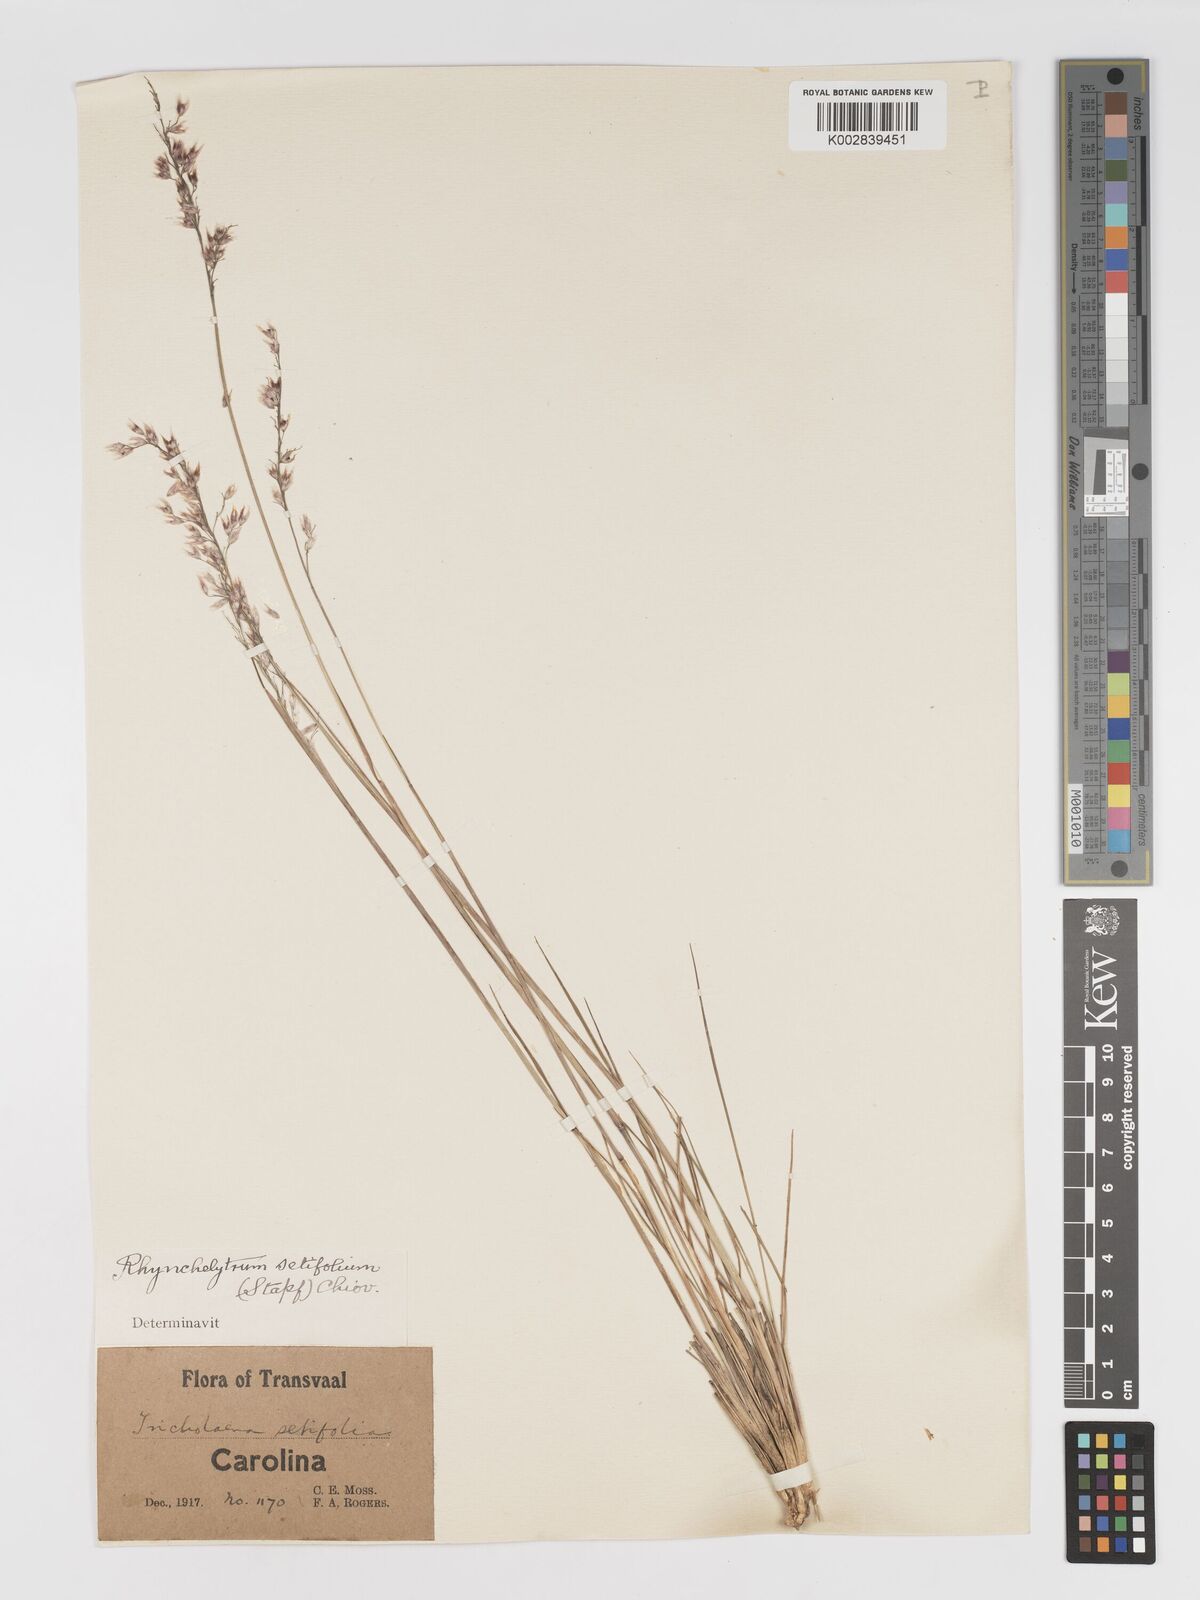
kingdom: Plantae
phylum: Tracheophyta
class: Liliopsida
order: Poales
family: Poaceae
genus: Melinis
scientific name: Melinis nerviglumis
